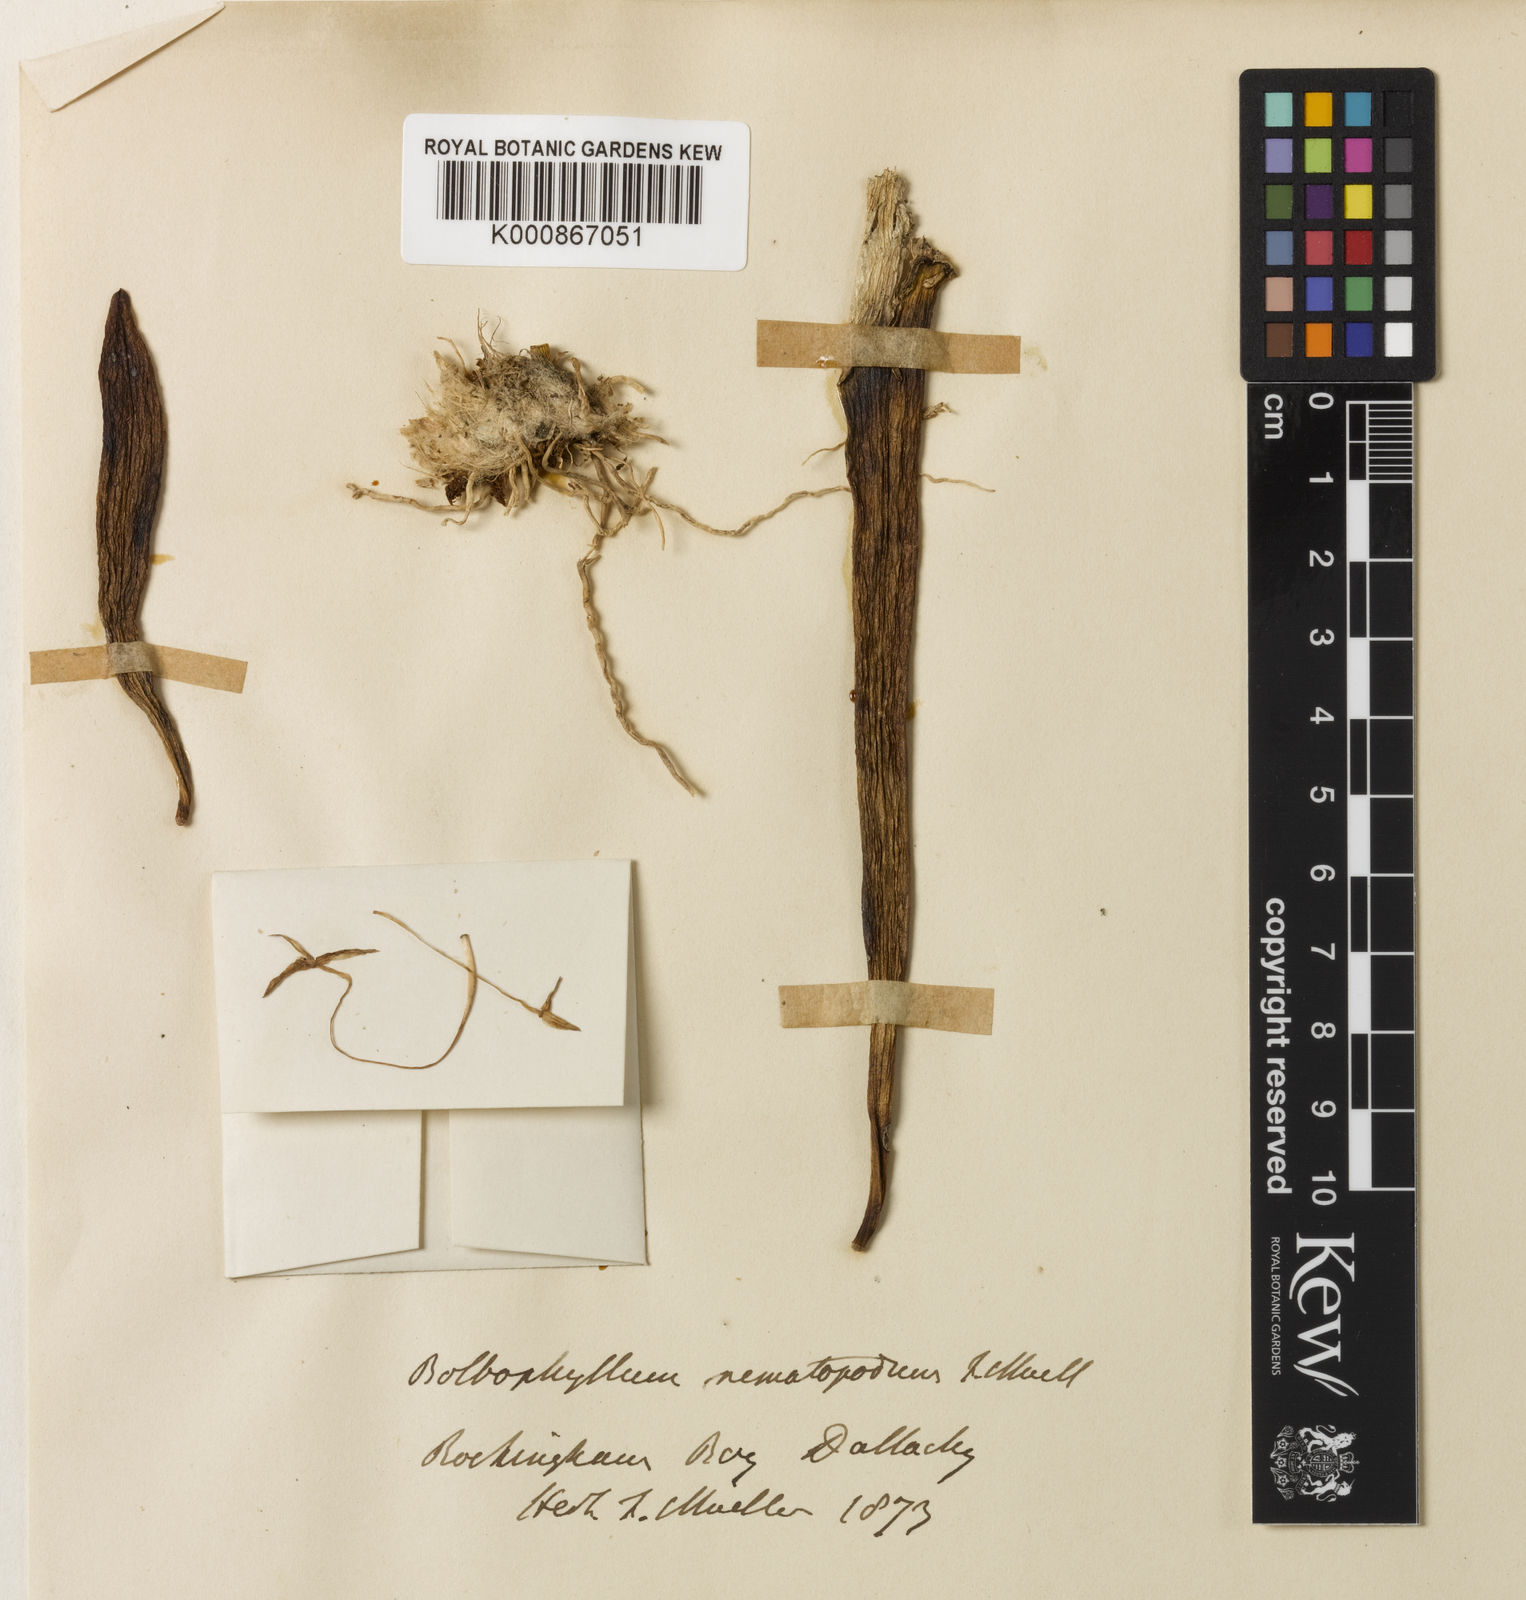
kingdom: Plantae
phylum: Tracheophyta
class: Liliopsida
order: Asparagales
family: Orchidaceae
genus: Bulbophyllum
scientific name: Bulbophyllum nematopodum
